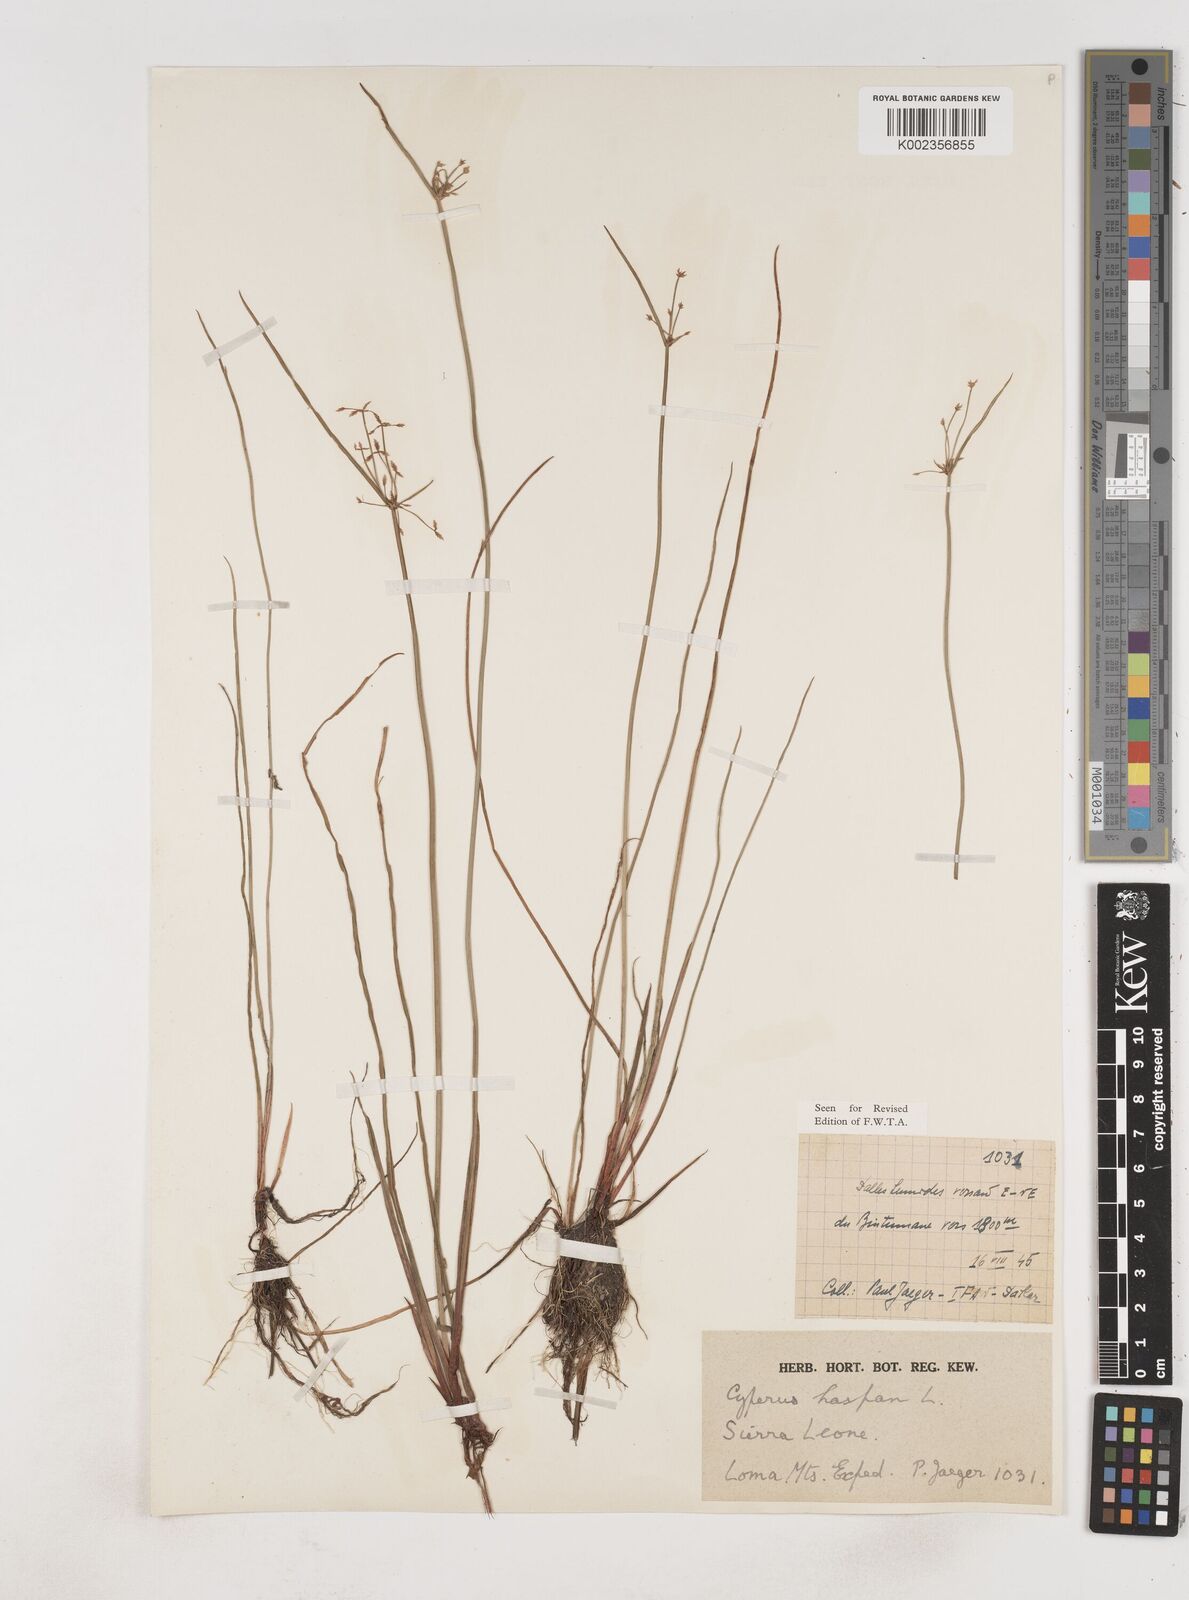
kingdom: Plantae
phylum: Tracheophyta
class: Liliopsida
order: Poales
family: Cyperaceae
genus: Cyperus
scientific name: Cyperus haspan
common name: Haspan flatsedge
